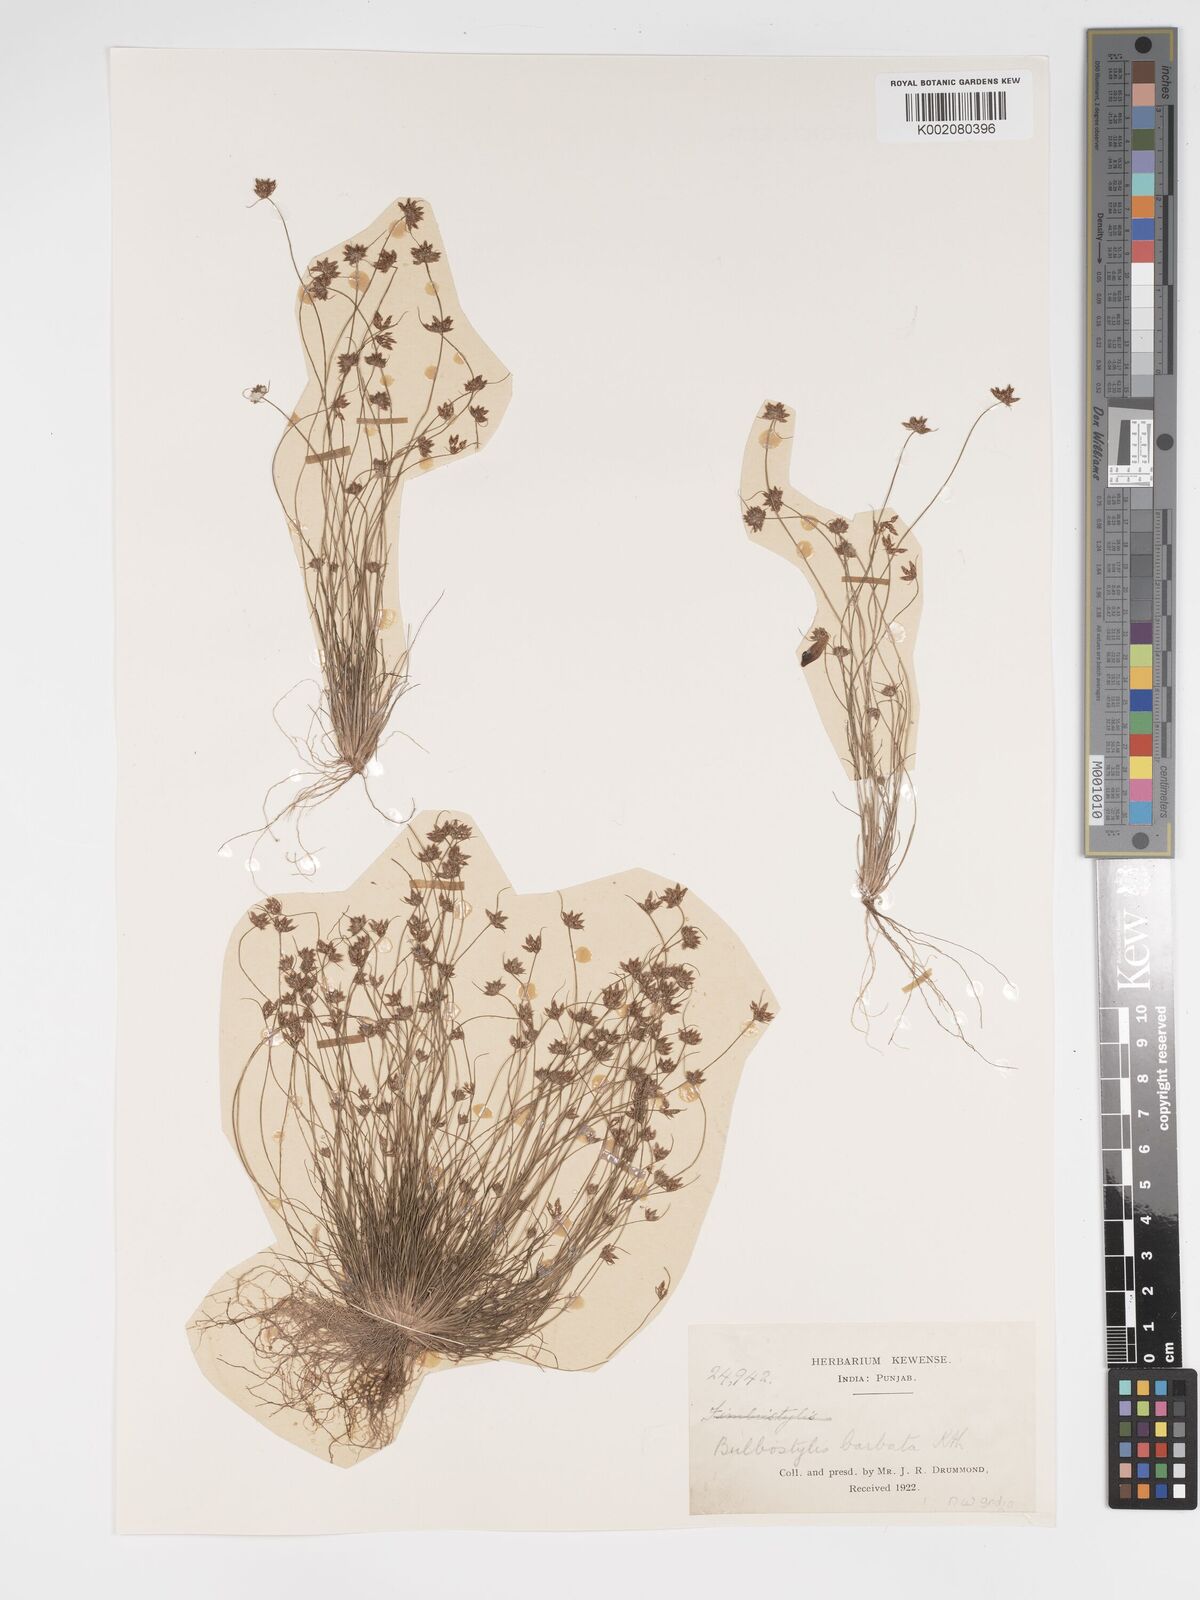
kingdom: Plantae
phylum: Tracheophyta
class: Liliopsida
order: Poales
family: Cyperaceae
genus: Bulbostylis
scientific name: Bulbostylis barbata
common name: Watergrass
